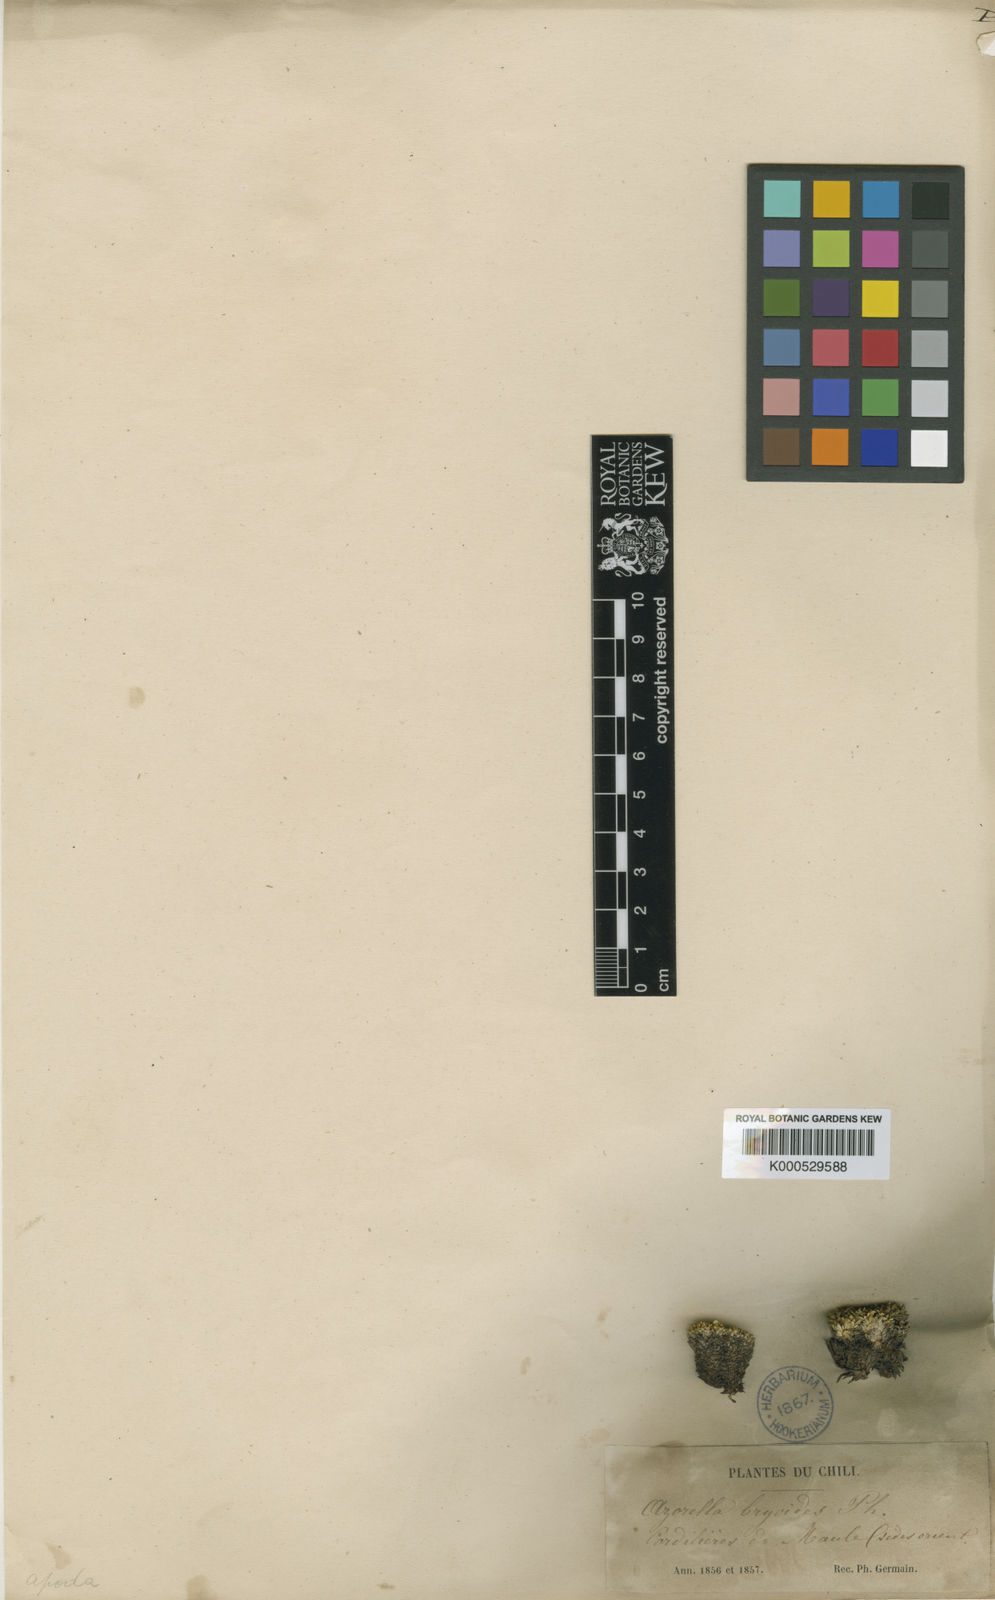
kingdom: Plantae
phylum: Tracheophyta
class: Magnoliopsida
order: Apiales
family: Apiaceae
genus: Azorella
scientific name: Azorella monantha
